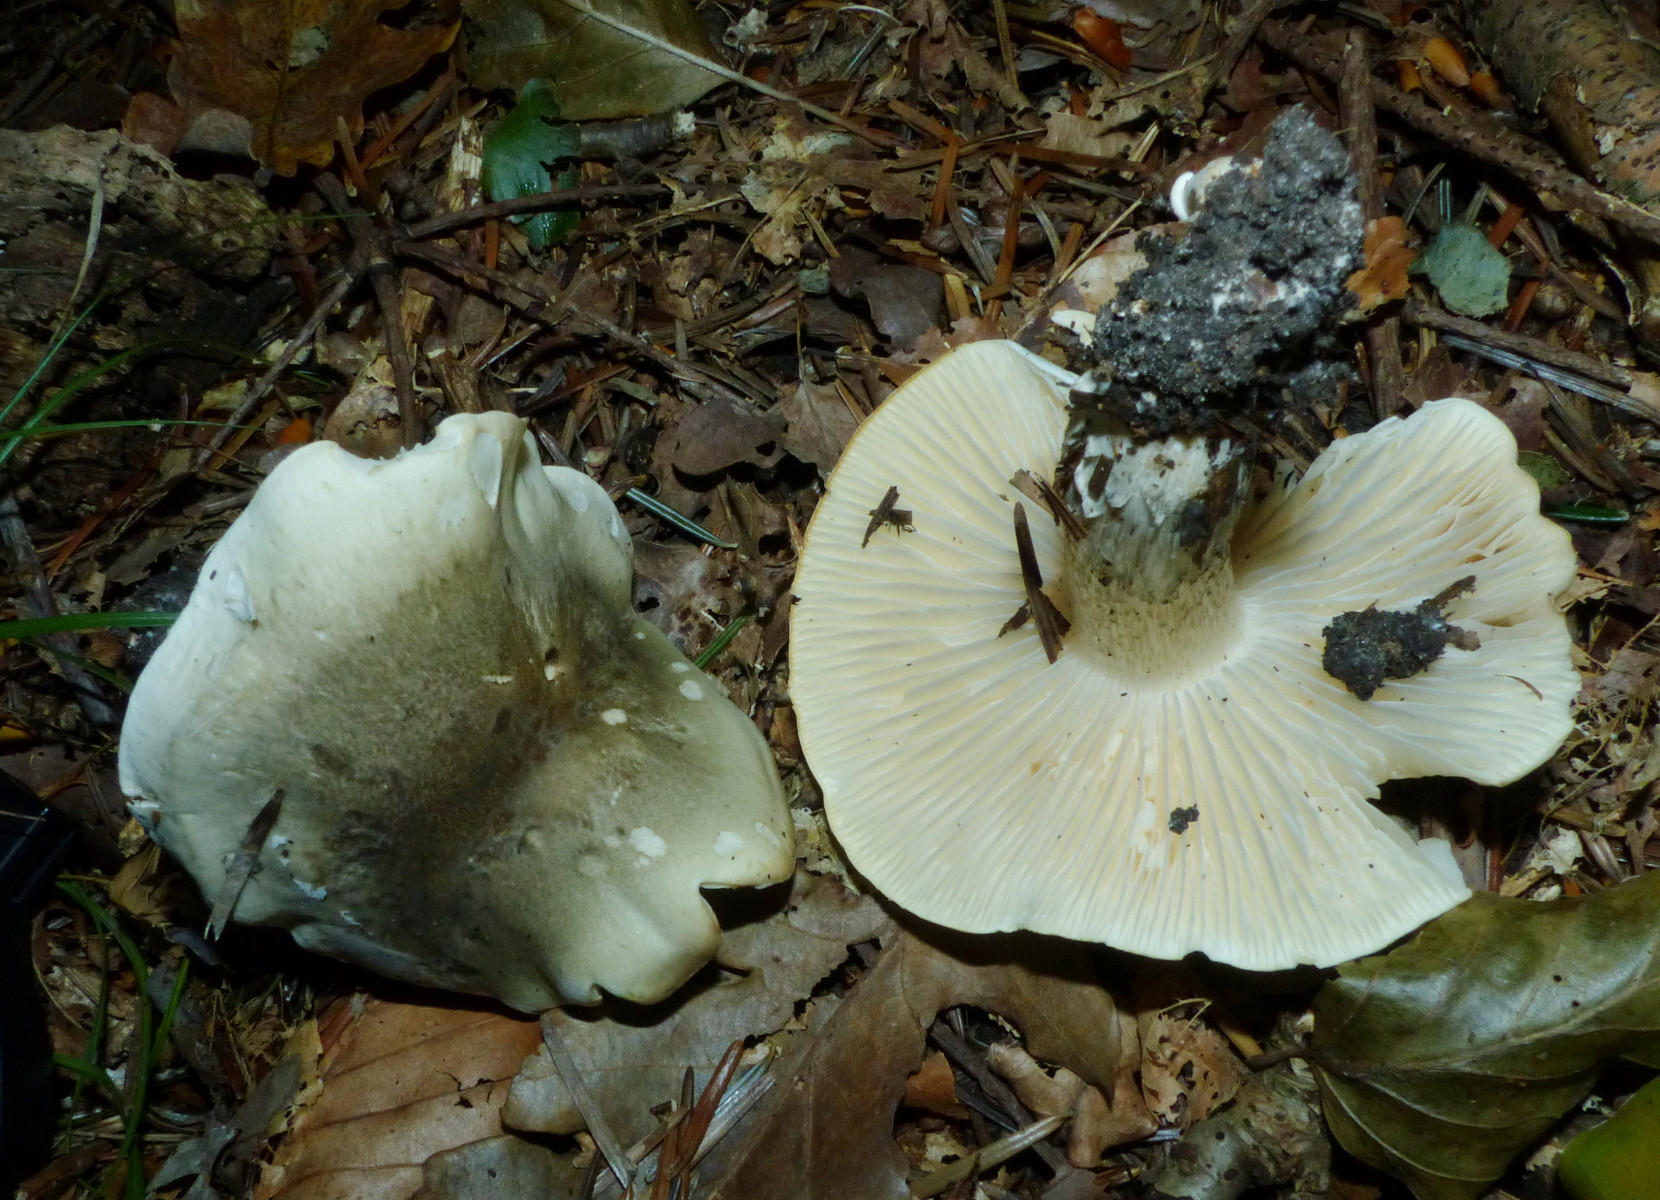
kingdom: Fungi
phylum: Basidiomycota
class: Agaricomycetes
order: Agaricales
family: Tricholomataceae
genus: Tricholoma
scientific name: Tricholoma saponaceum
